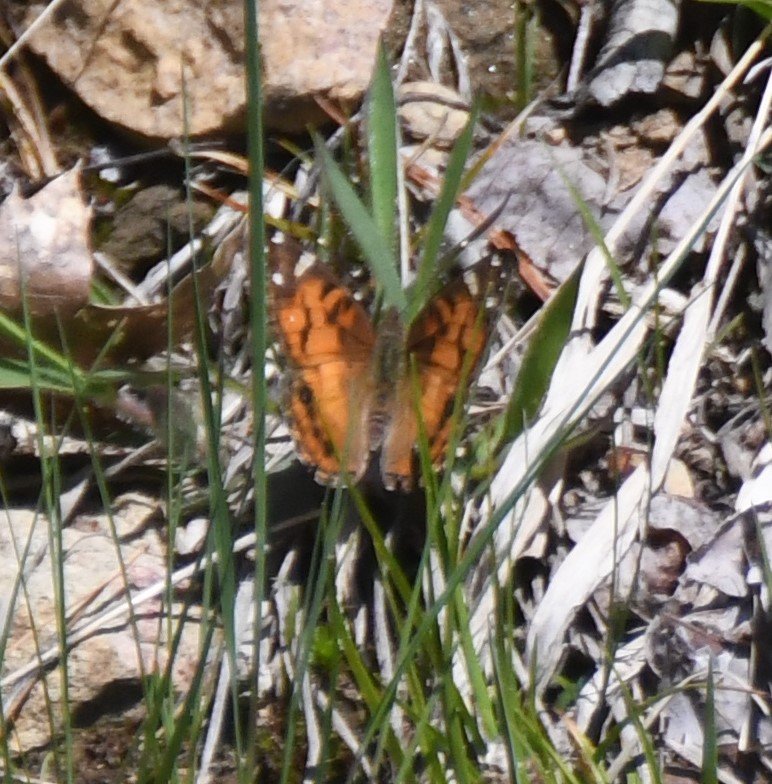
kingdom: Animalia
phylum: Arthropoda
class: Insecta
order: Lepidoptera
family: Nymphalidae
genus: Vanessa
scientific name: Vanessa virginiensis
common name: American Lady
